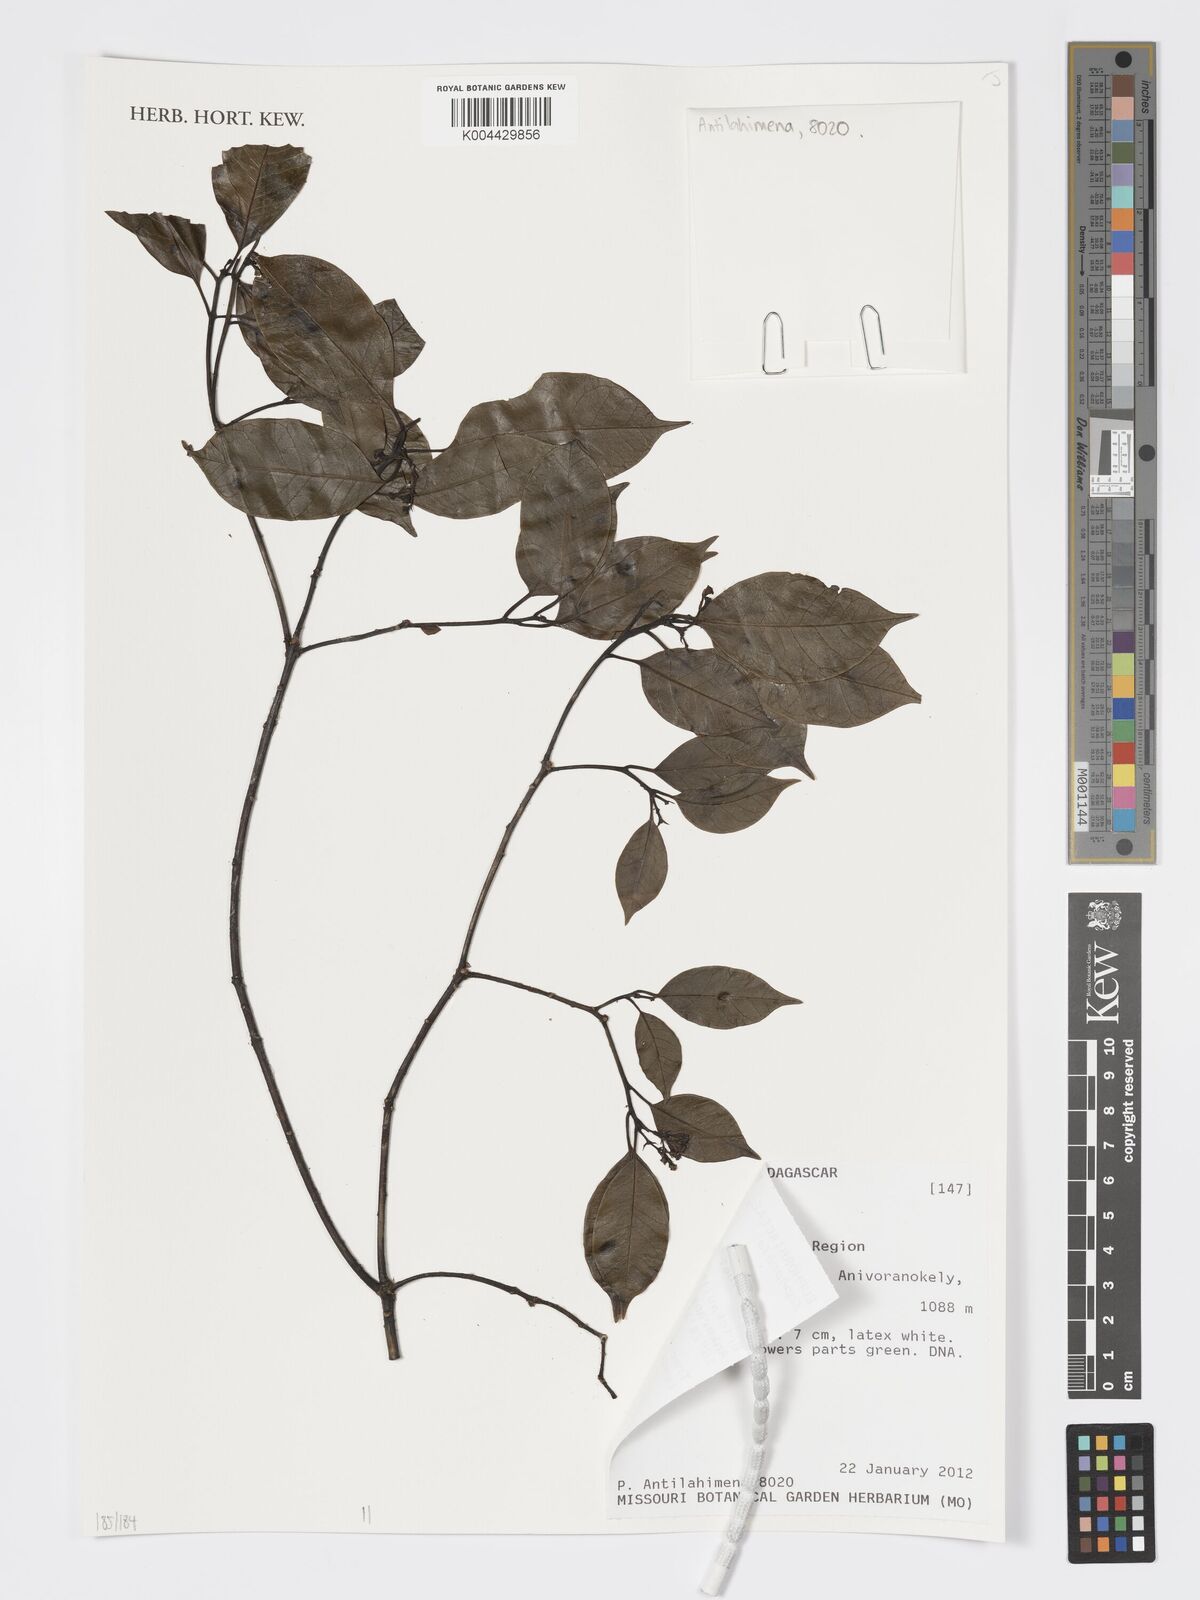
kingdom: Plantae
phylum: Tracheophyta
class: Magnoliopsida
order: Malpighiales
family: Euphorbiaceae
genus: Euphorbia
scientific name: Euphorbia tetraptera
